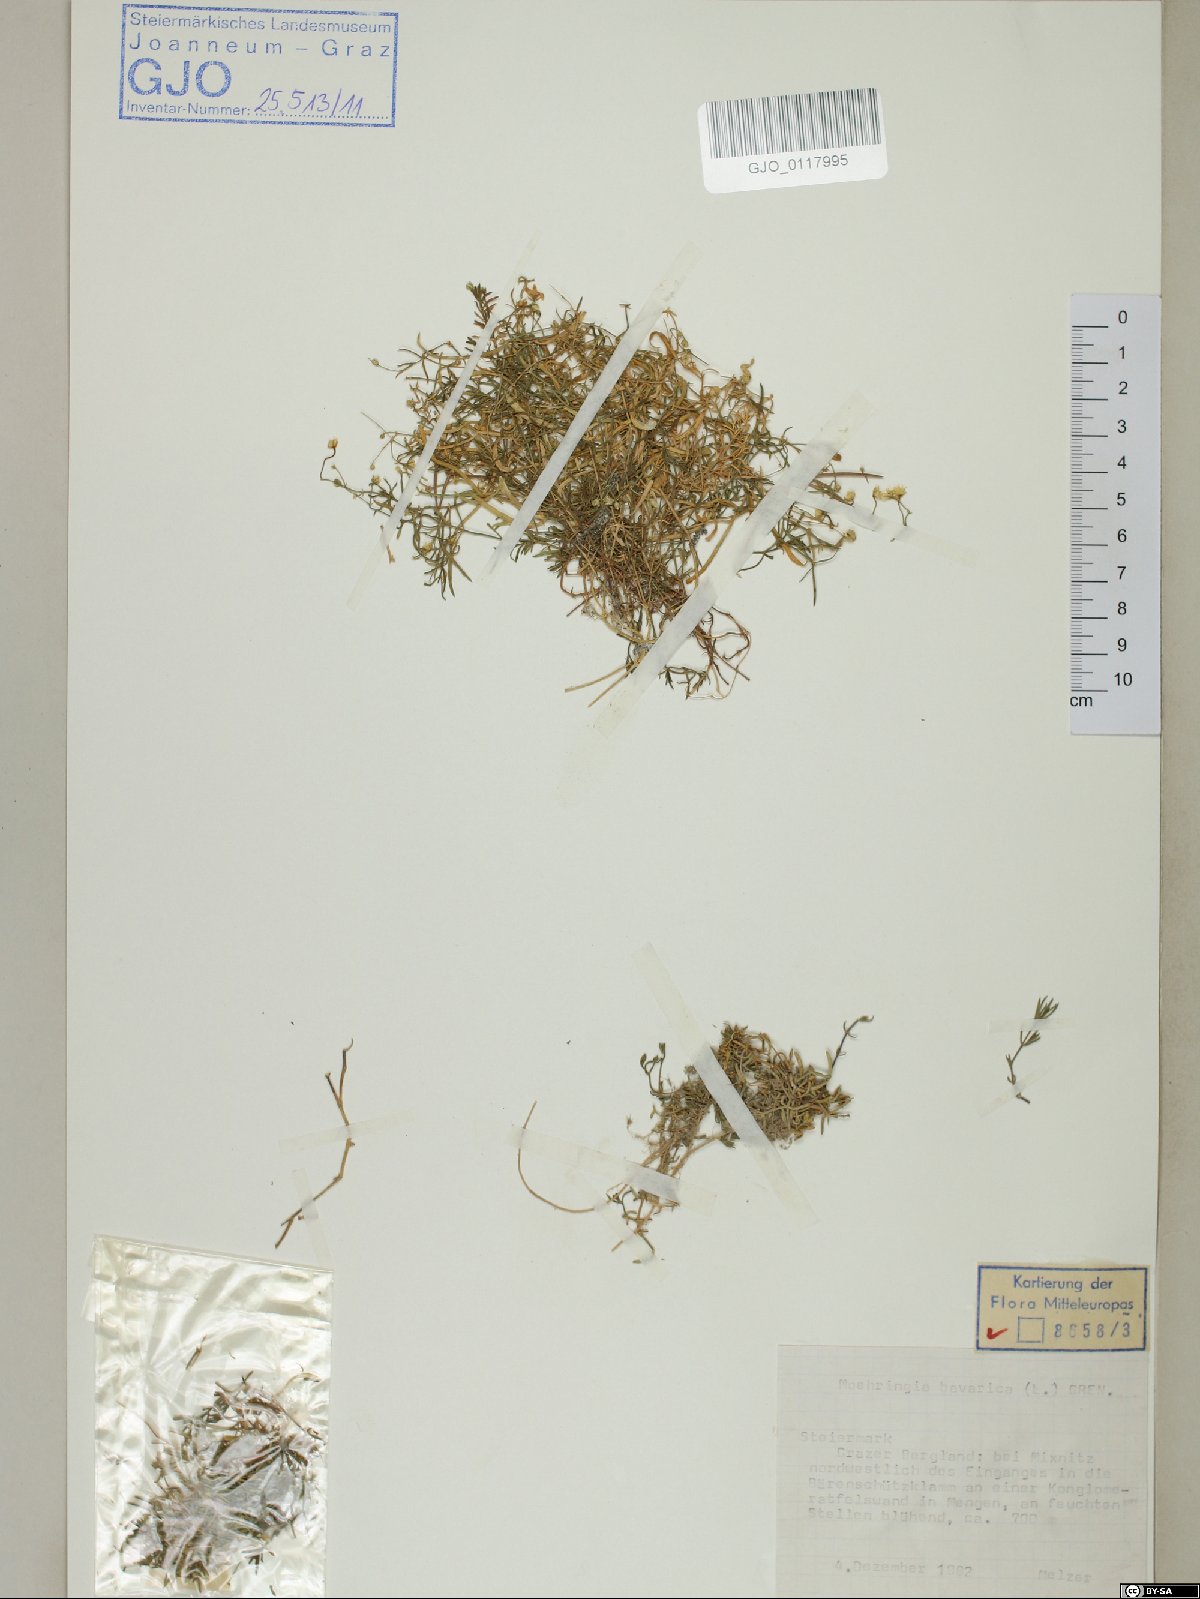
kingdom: Plantae
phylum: Tracheophyta
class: Magnoliopsida
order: Caryophyllales
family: Caryophyllaceae
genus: Moehringia
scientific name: Moehringia bavarica
